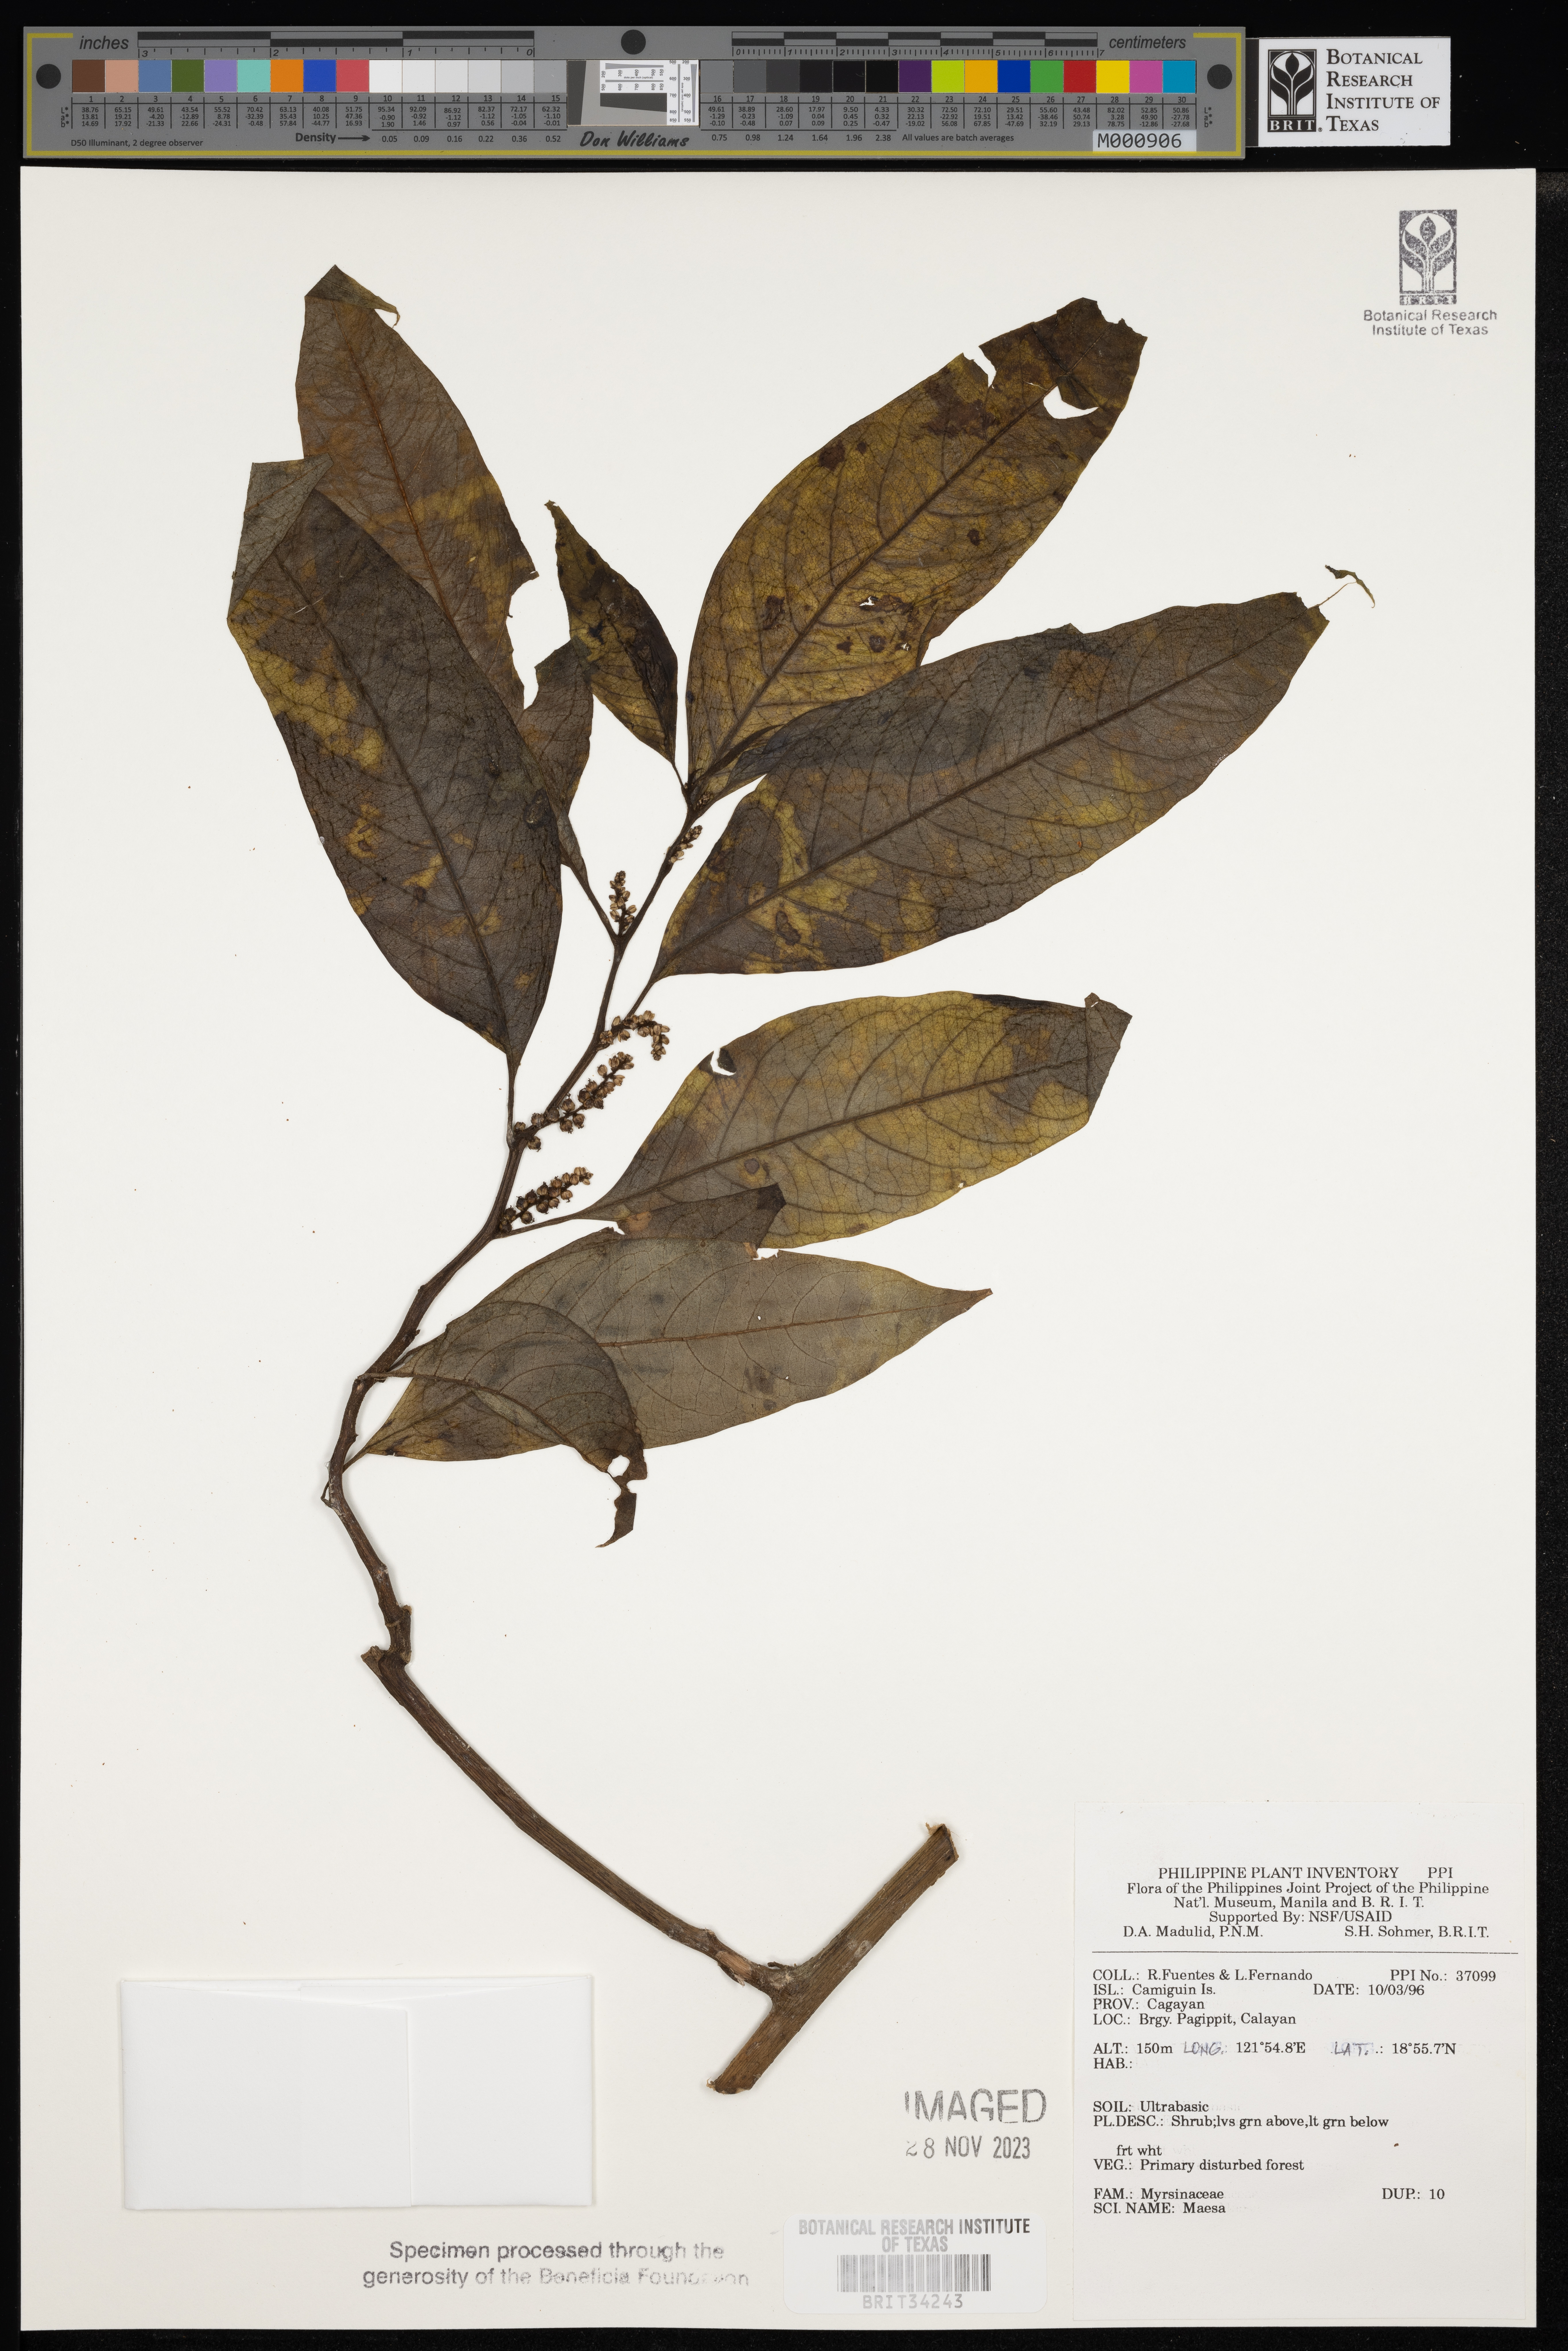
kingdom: Plantae
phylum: Tracheophyta
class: Magnoliopsida
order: Ericales
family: Primulaceae
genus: Maesa
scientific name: Maesa
